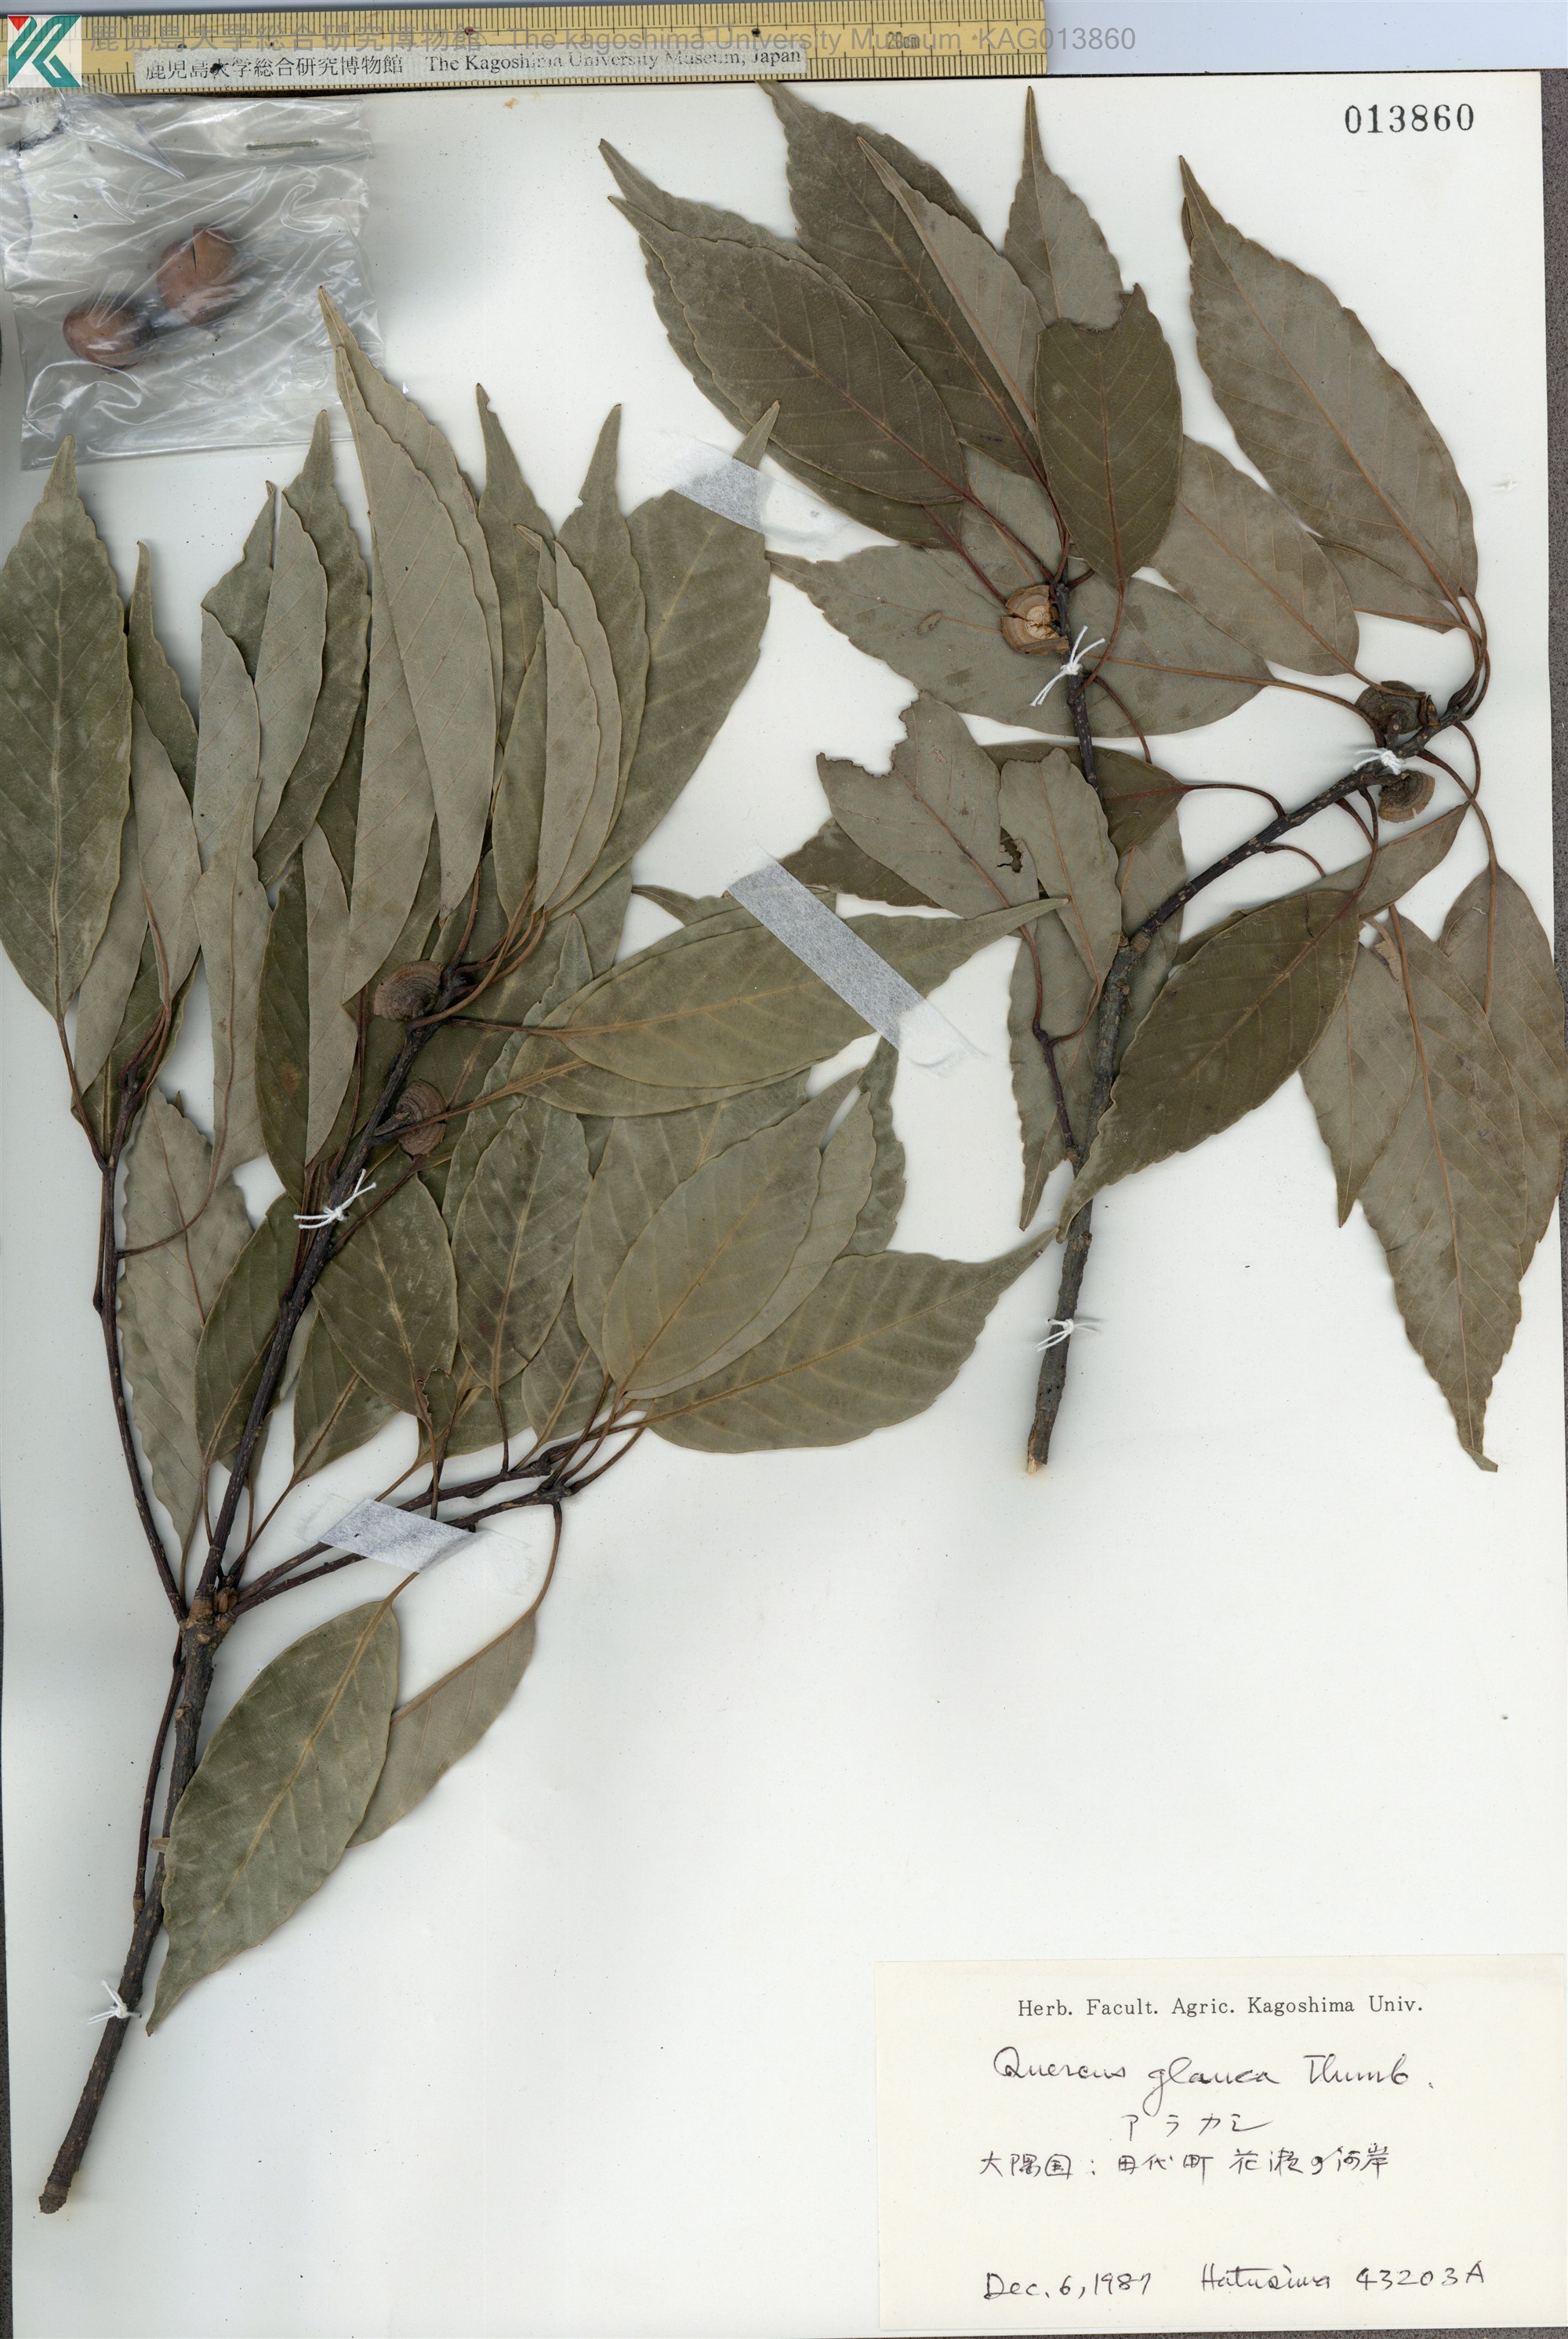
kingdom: Plantae
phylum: Tracheophyta
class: Magnoliopsida
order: Fagales
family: Fagaceae
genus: Quercus
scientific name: Quercus glauca
